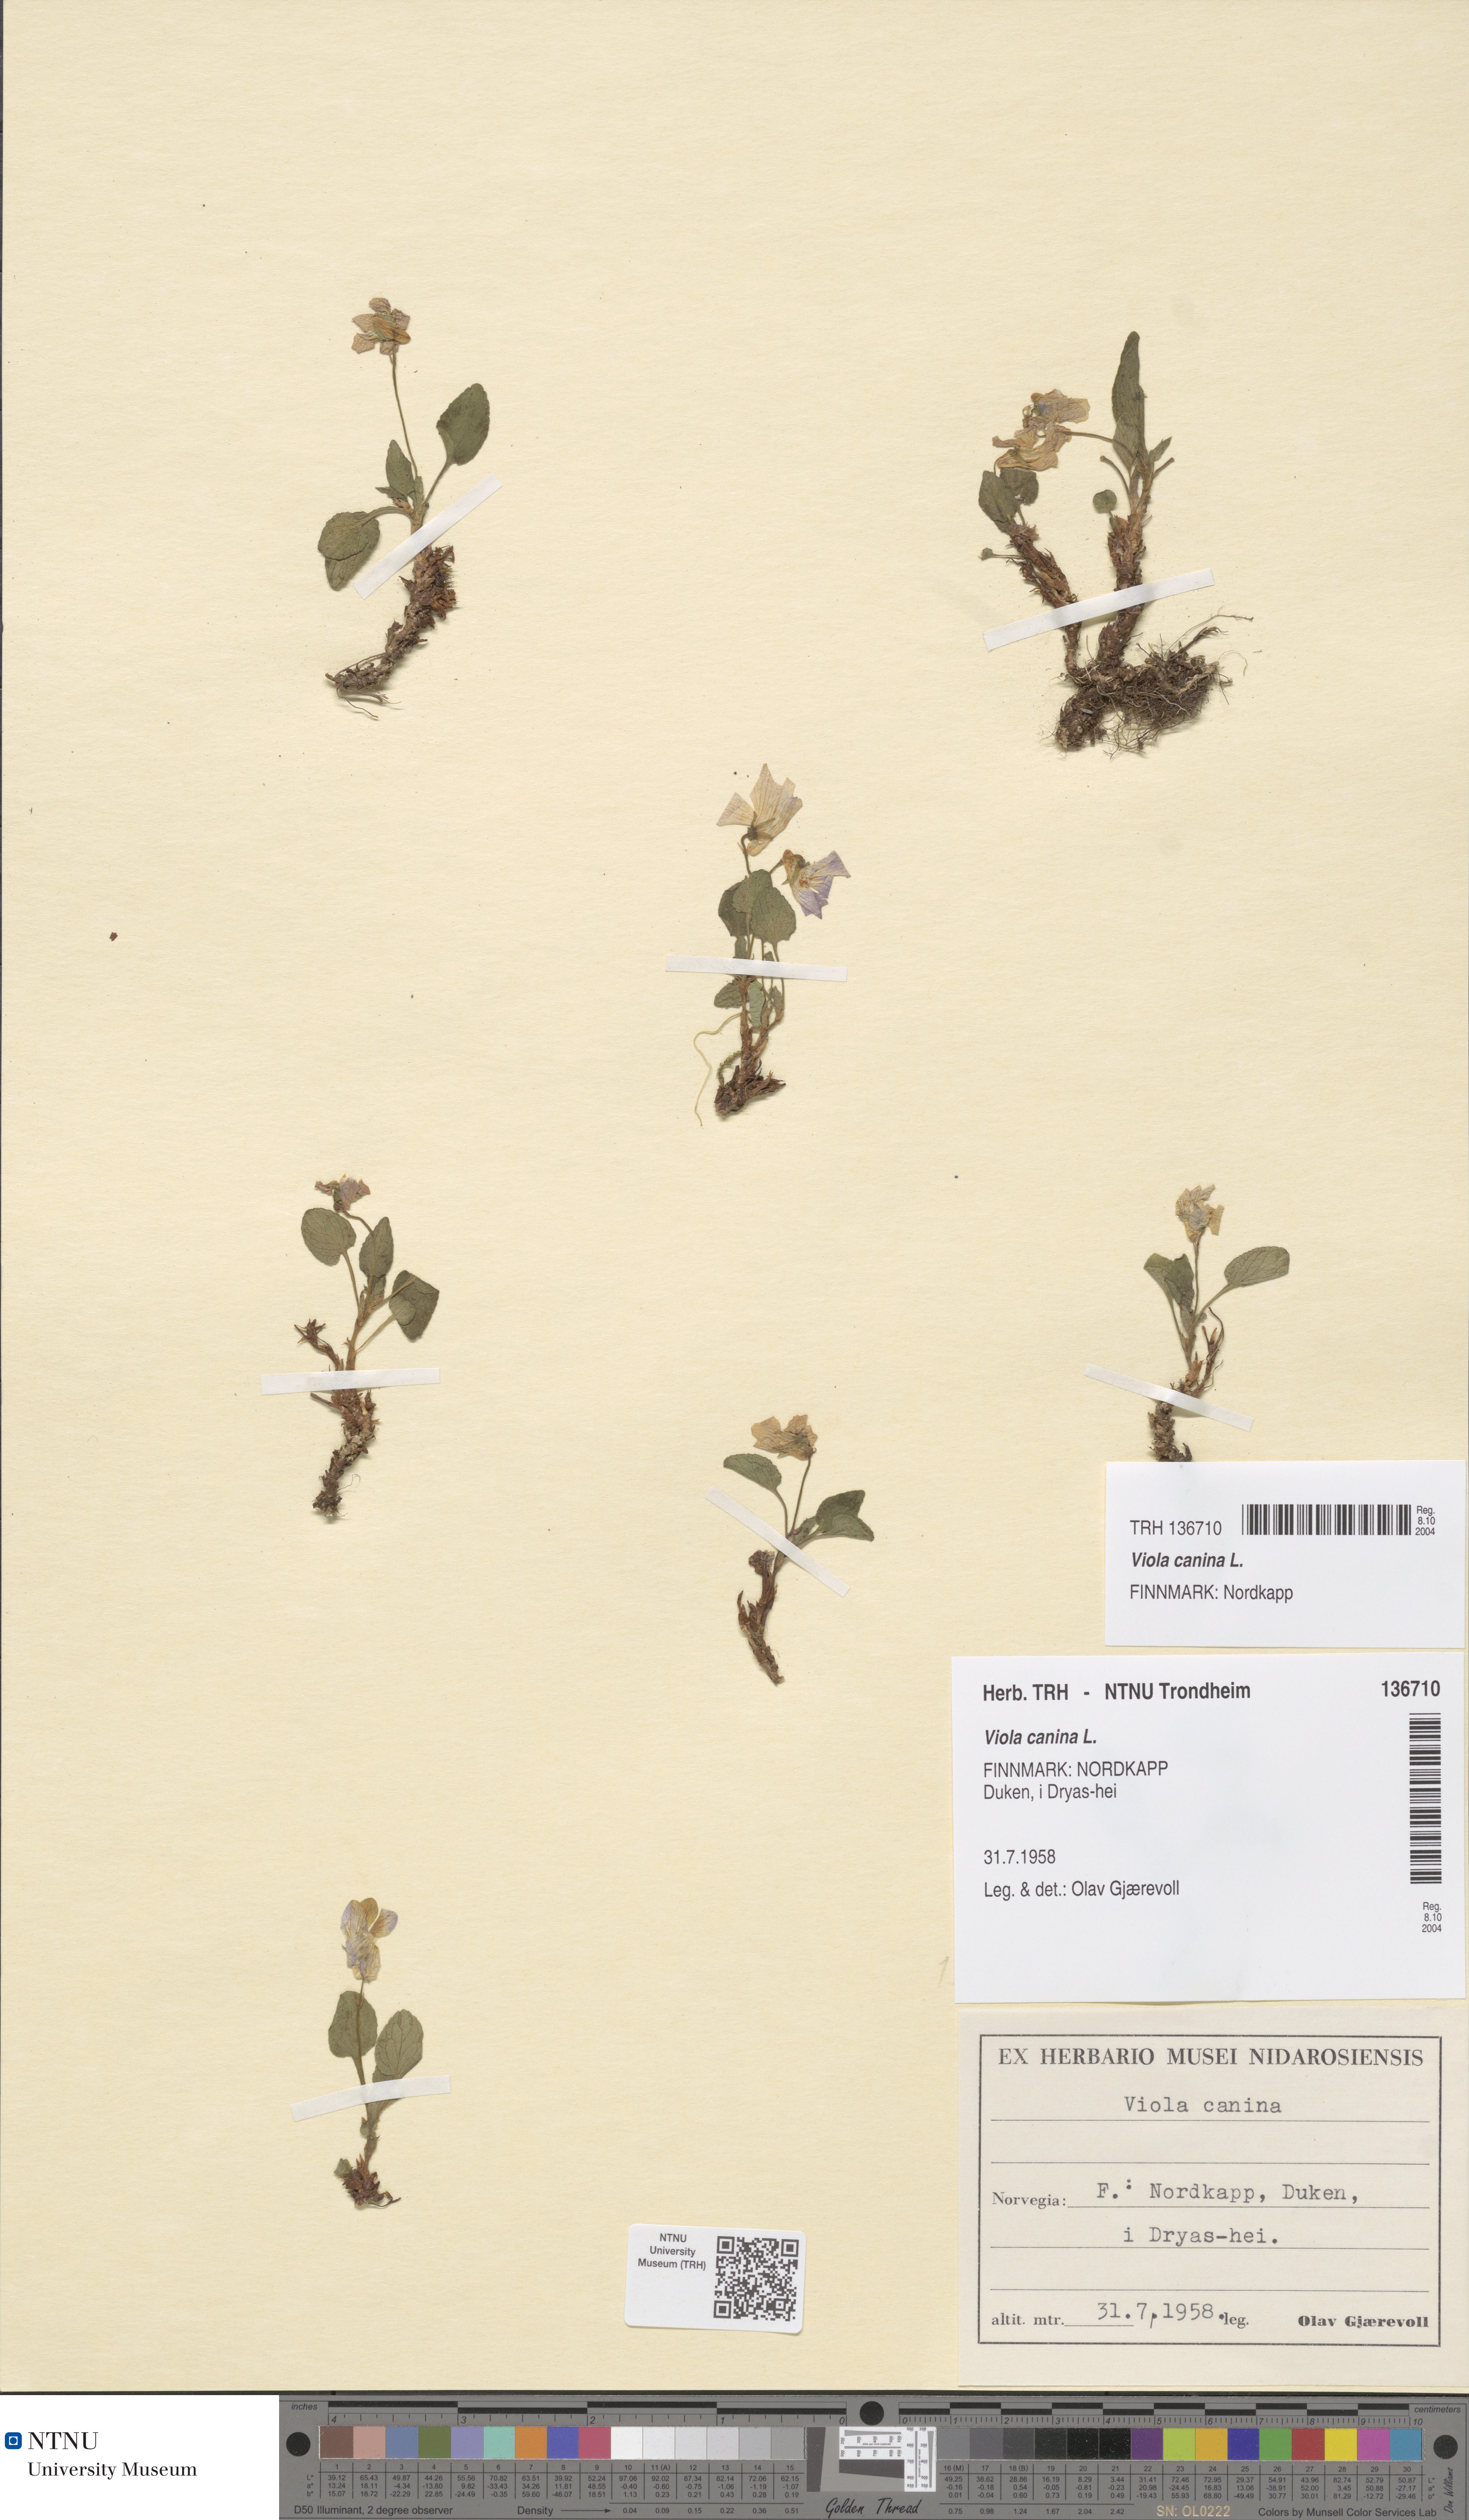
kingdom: Plantae
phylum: Tracheophyta
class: Magnoliopsida
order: Malpighiales
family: Violaceae
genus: Viola
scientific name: Viola canina
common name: Heath dog-violet
